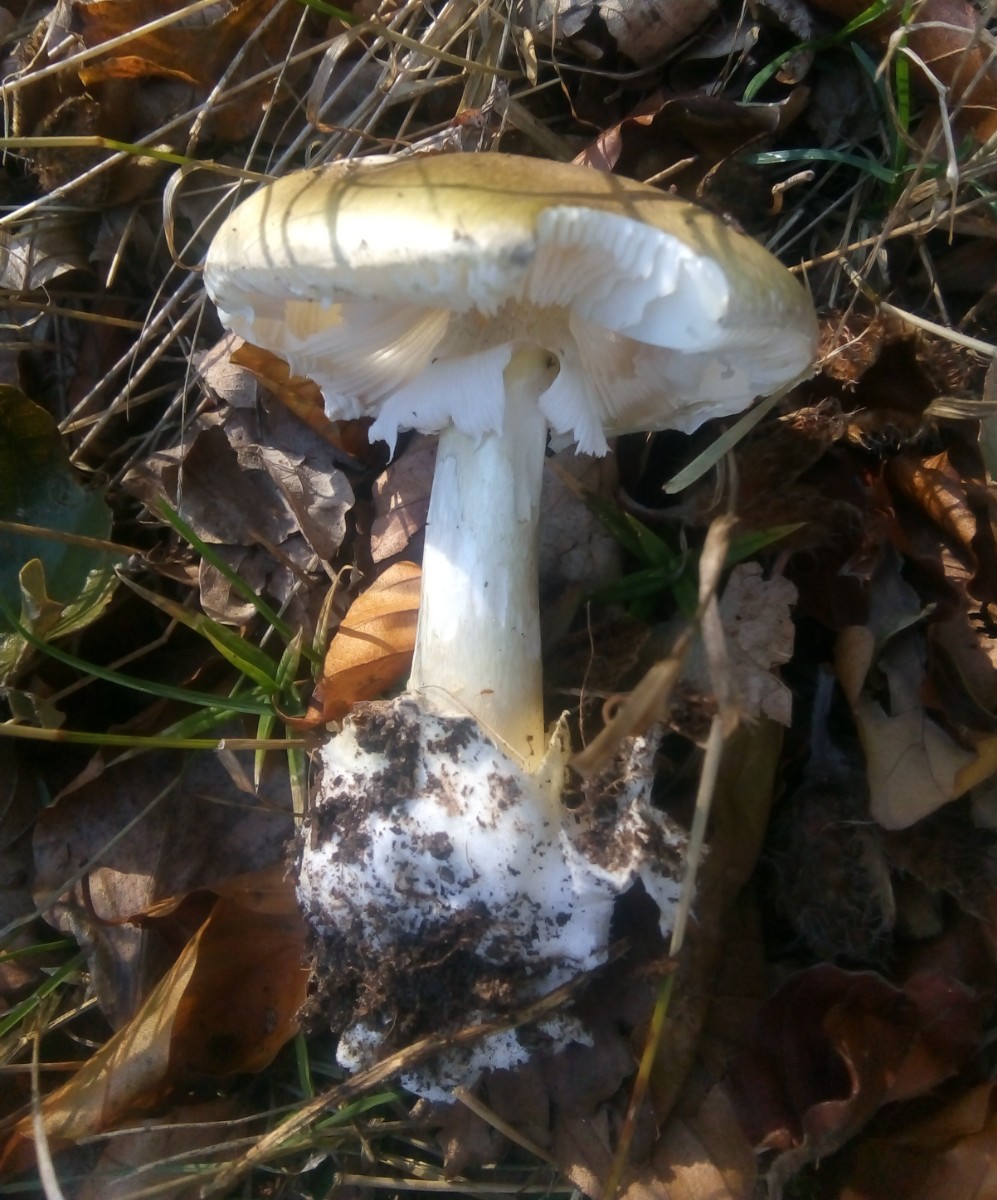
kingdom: Fungi
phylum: Basidiomycota
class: Agaricomycetes
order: Agaricales
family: Amanitaceae
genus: Amanita
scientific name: Amanita phalloides
